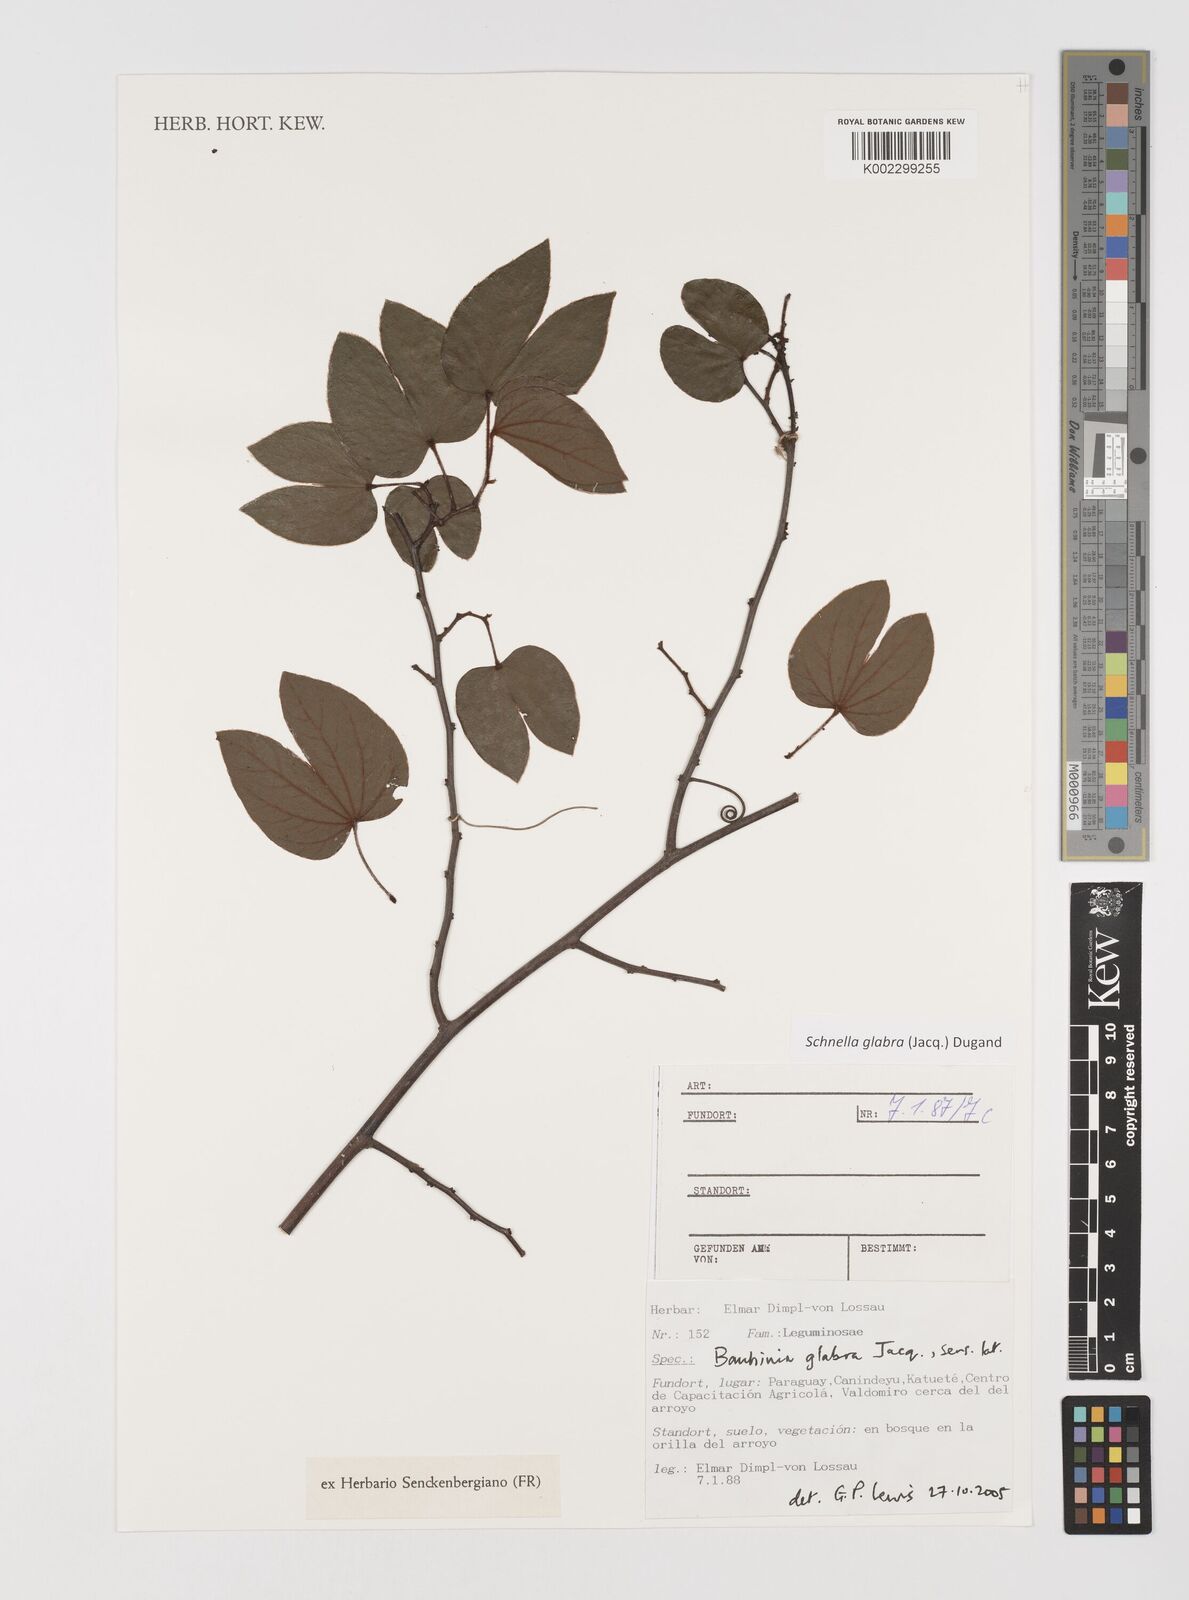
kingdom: Plantae
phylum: Tracheophyta
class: Magnoliopsida
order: Fabales
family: Fabaceae
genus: Schnella
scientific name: Schnella glabra
